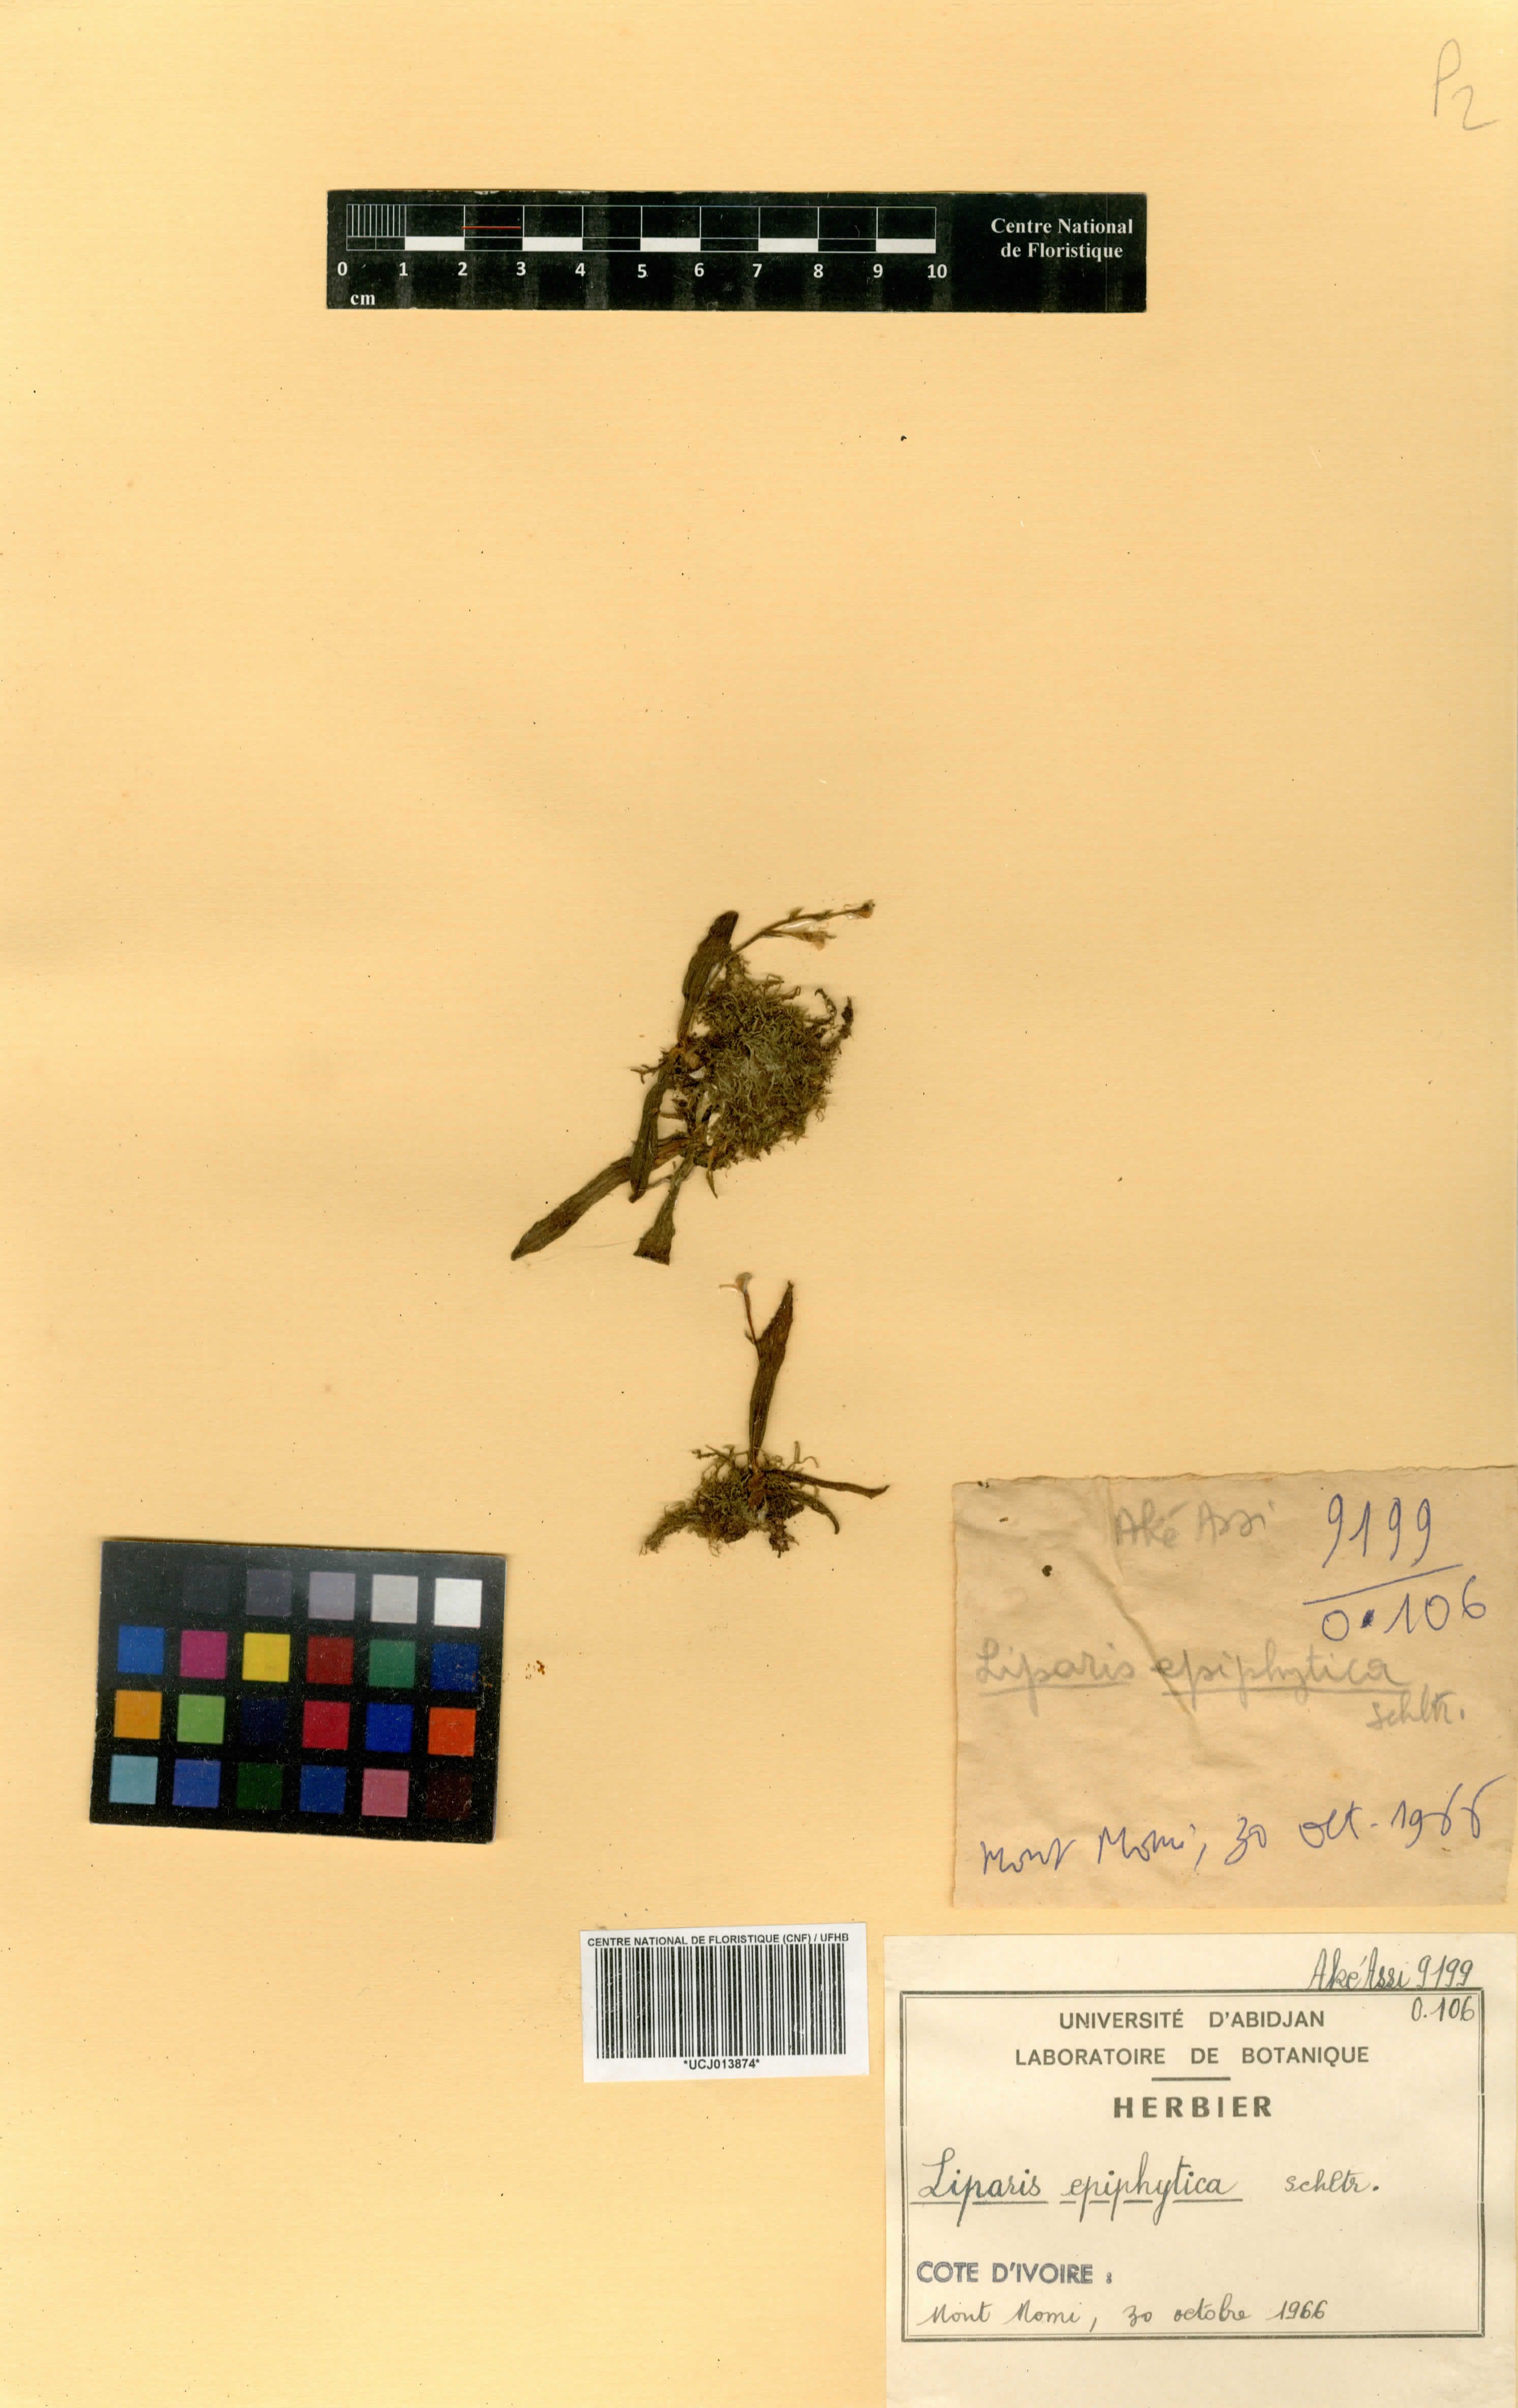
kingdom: Plantae
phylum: Tracheophyta
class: Liliopsida
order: Asparagales
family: Orchidaceae
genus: Liparis
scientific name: Liparis epiphytica
